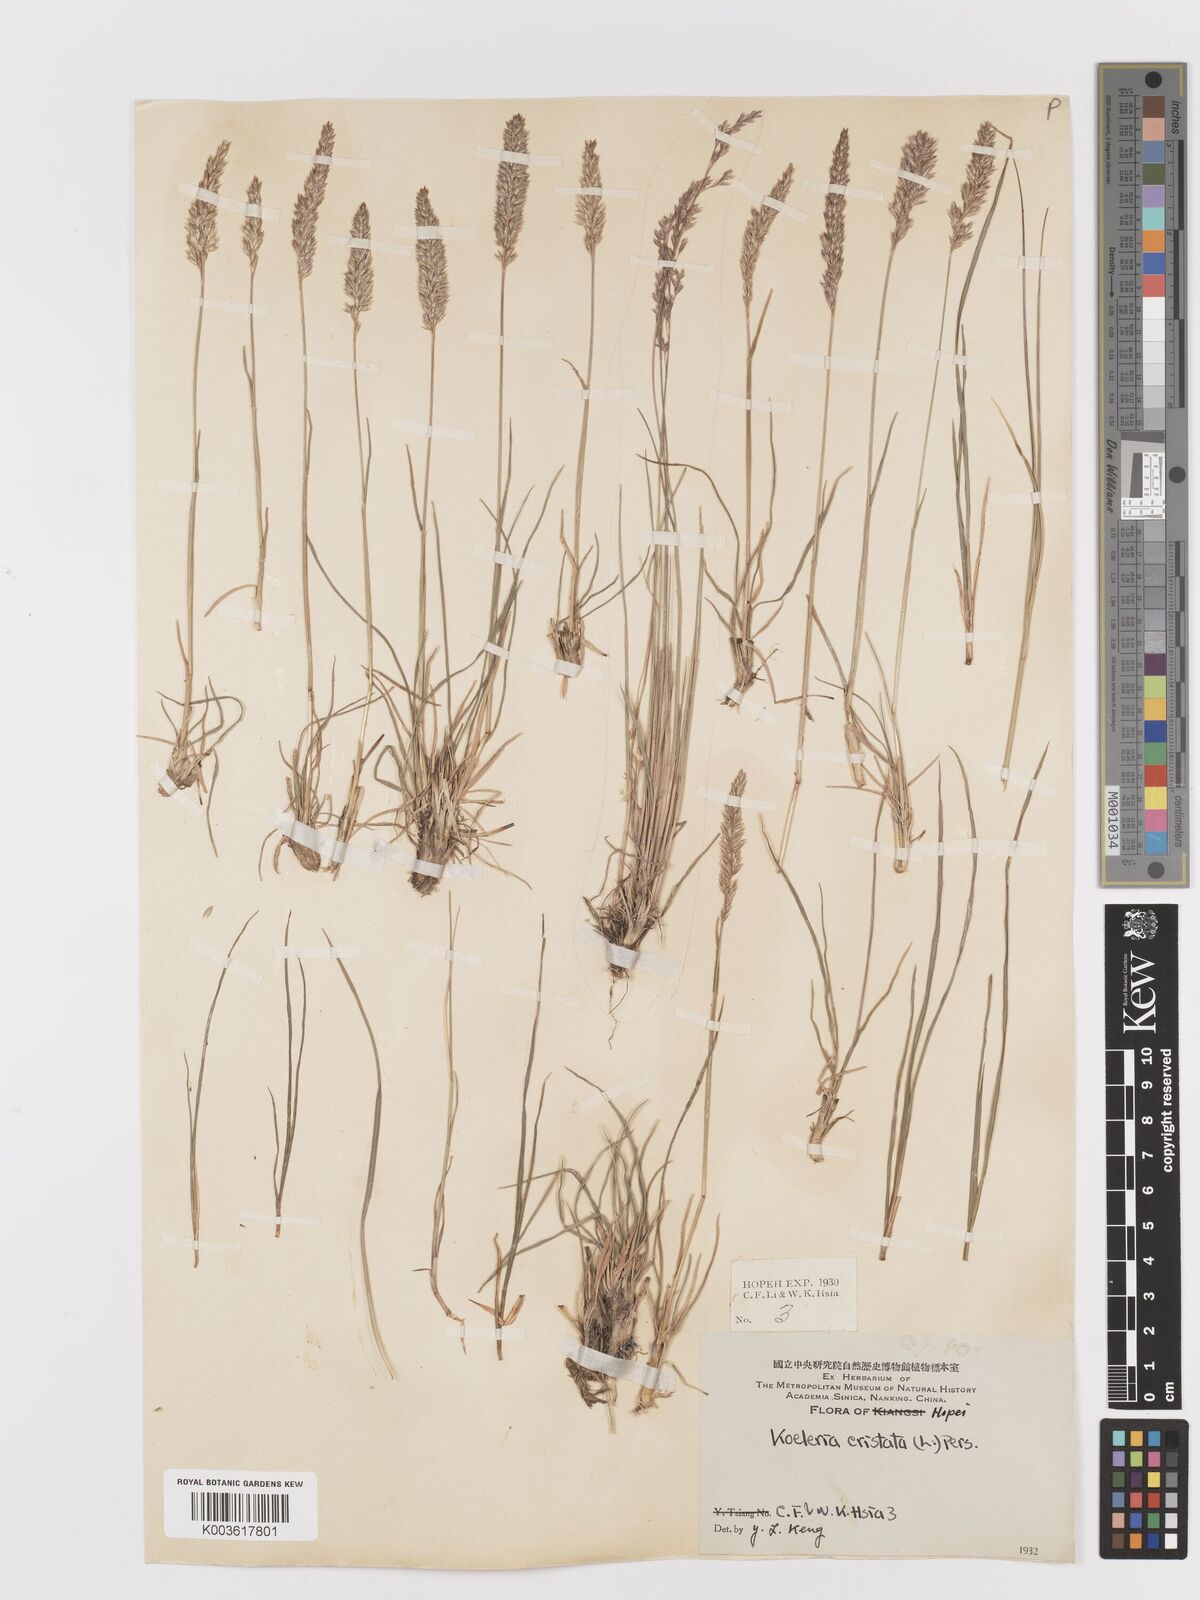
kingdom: Plantae
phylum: Tracheophyta
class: Liliopsida
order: Poales
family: Poaceae
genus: Koeleria
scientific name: Koeleria macrantha
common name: Crested hair-grass
